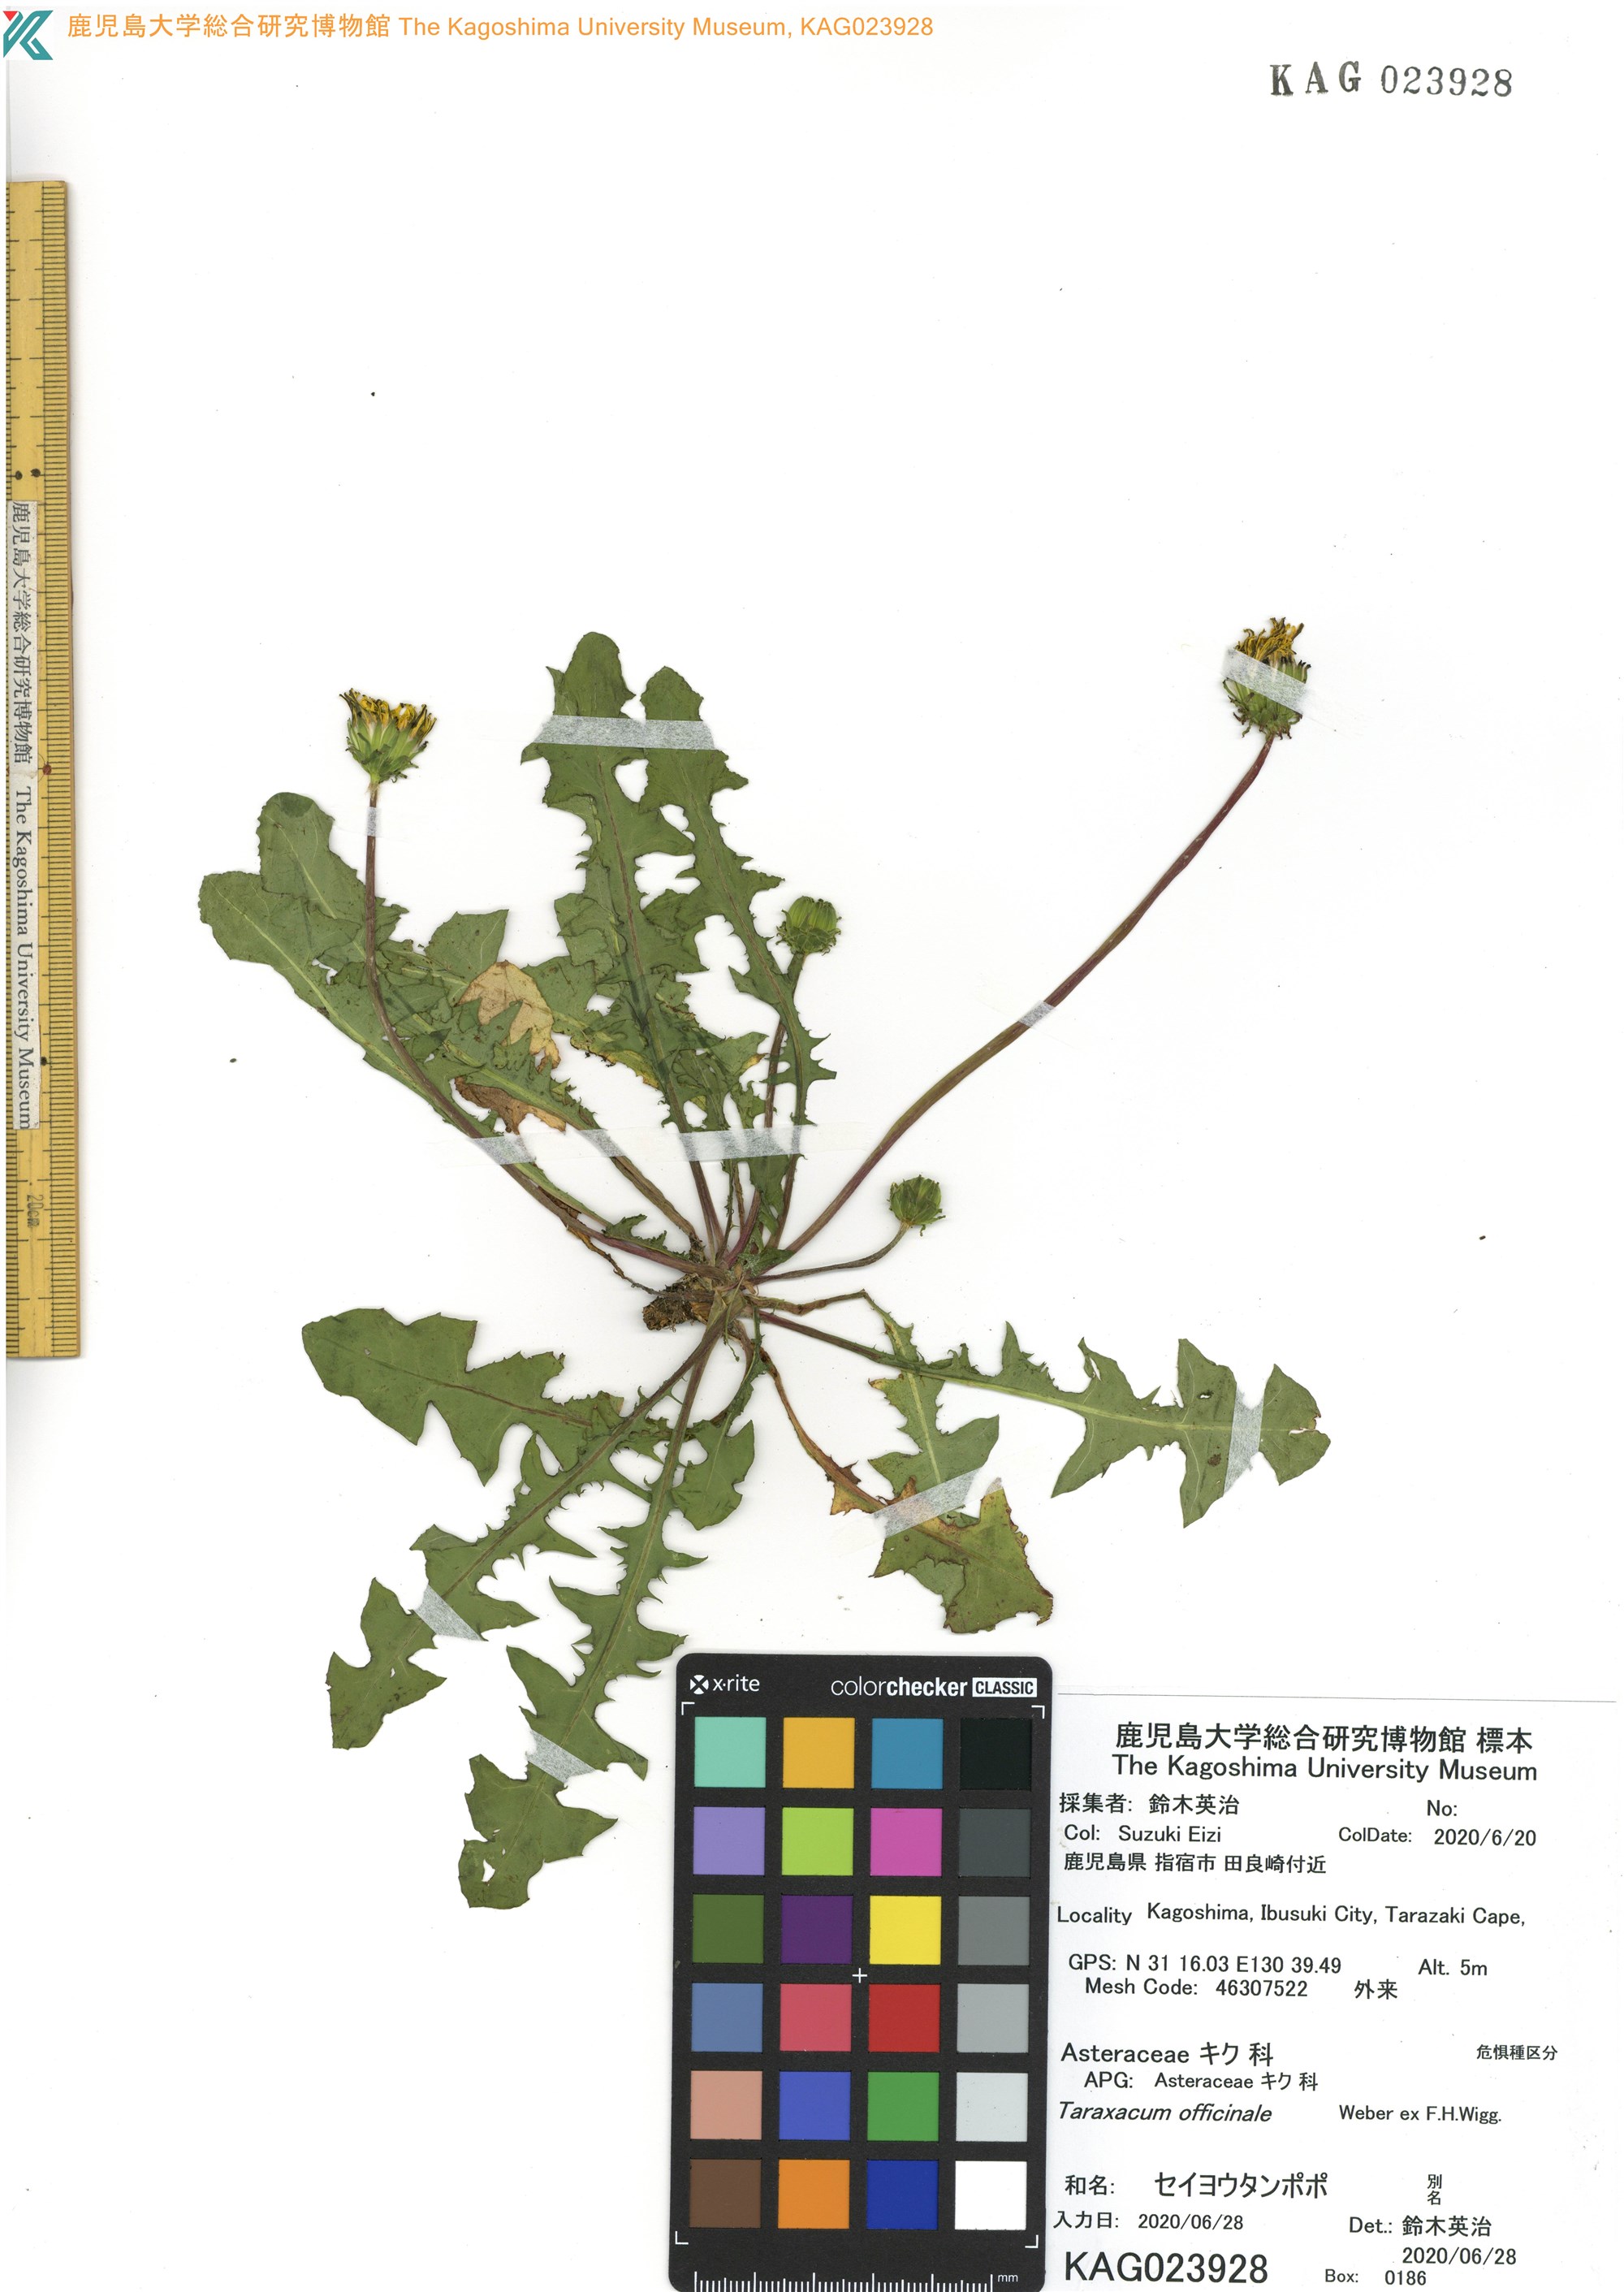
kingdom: Plantae
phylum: Tracheophyta
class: Magnoliopsida
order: Asterales
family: Asteraceae
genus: Taraxacum
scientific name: Taraxacum officinale
